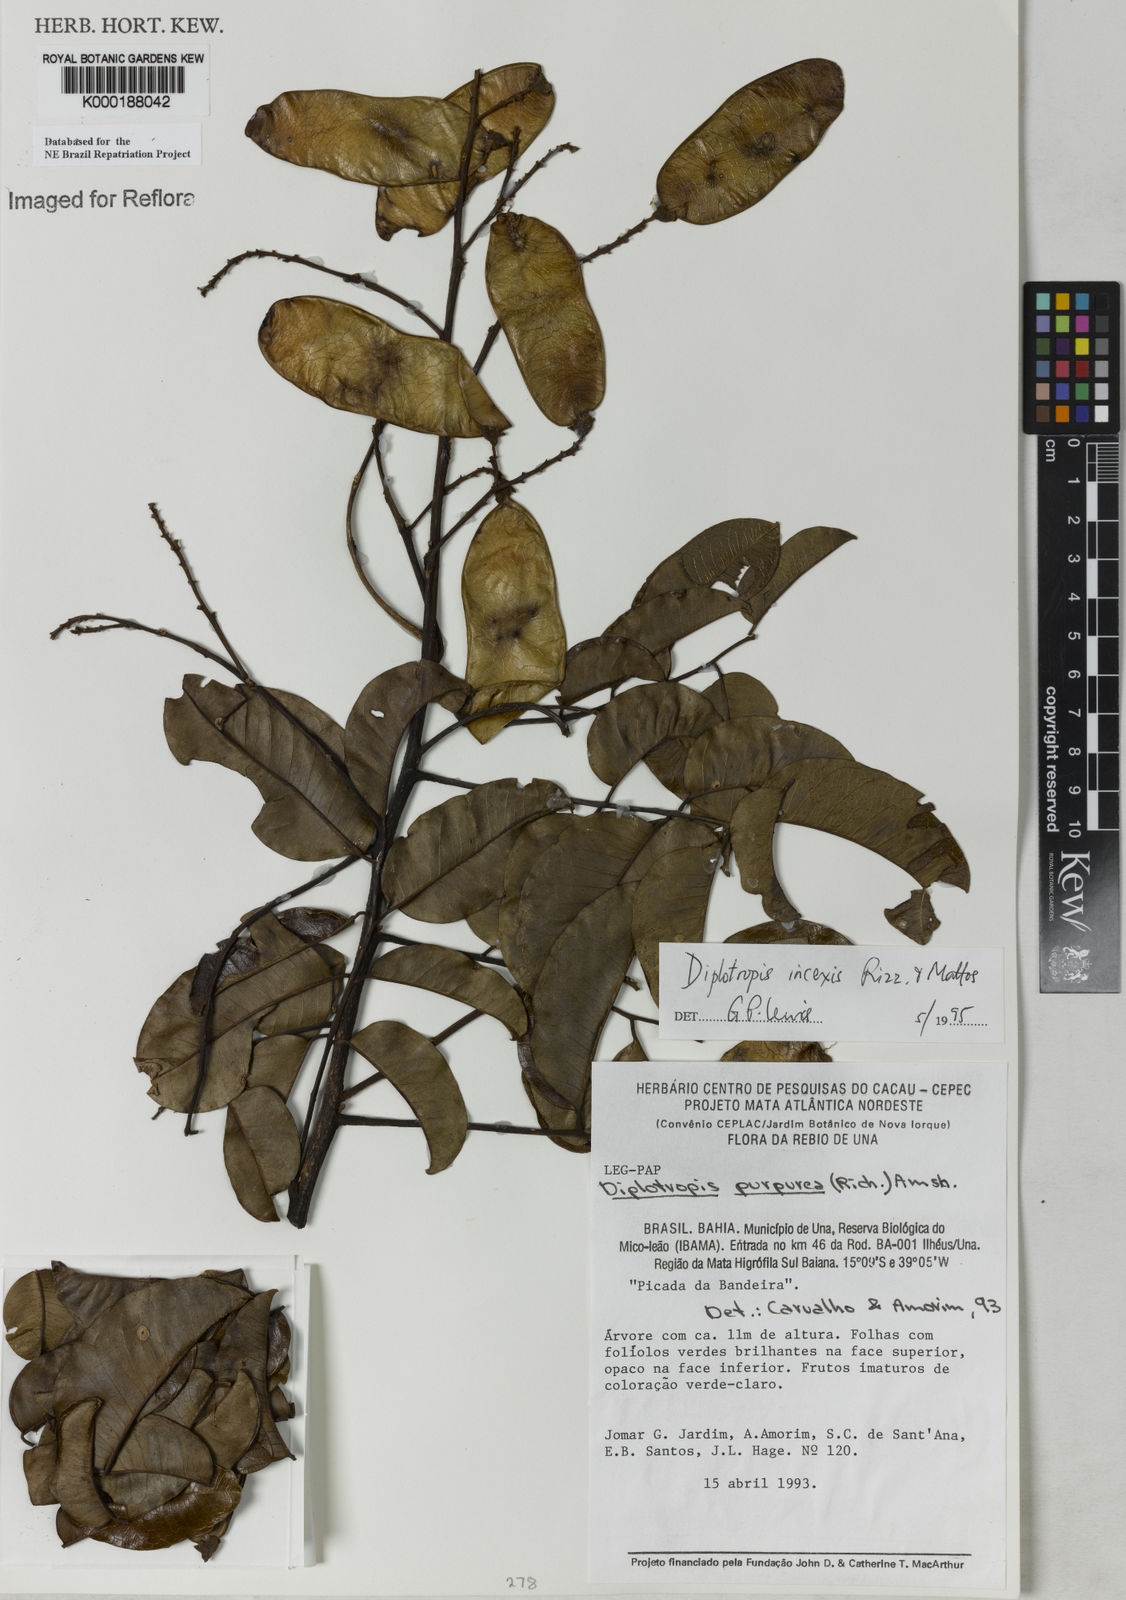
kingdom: Plantae
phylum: Tracheophyta
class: Magnoliopsida
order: Fabales
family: Fabaceae
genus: Diplotropis
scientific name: Diplotropis incexis
